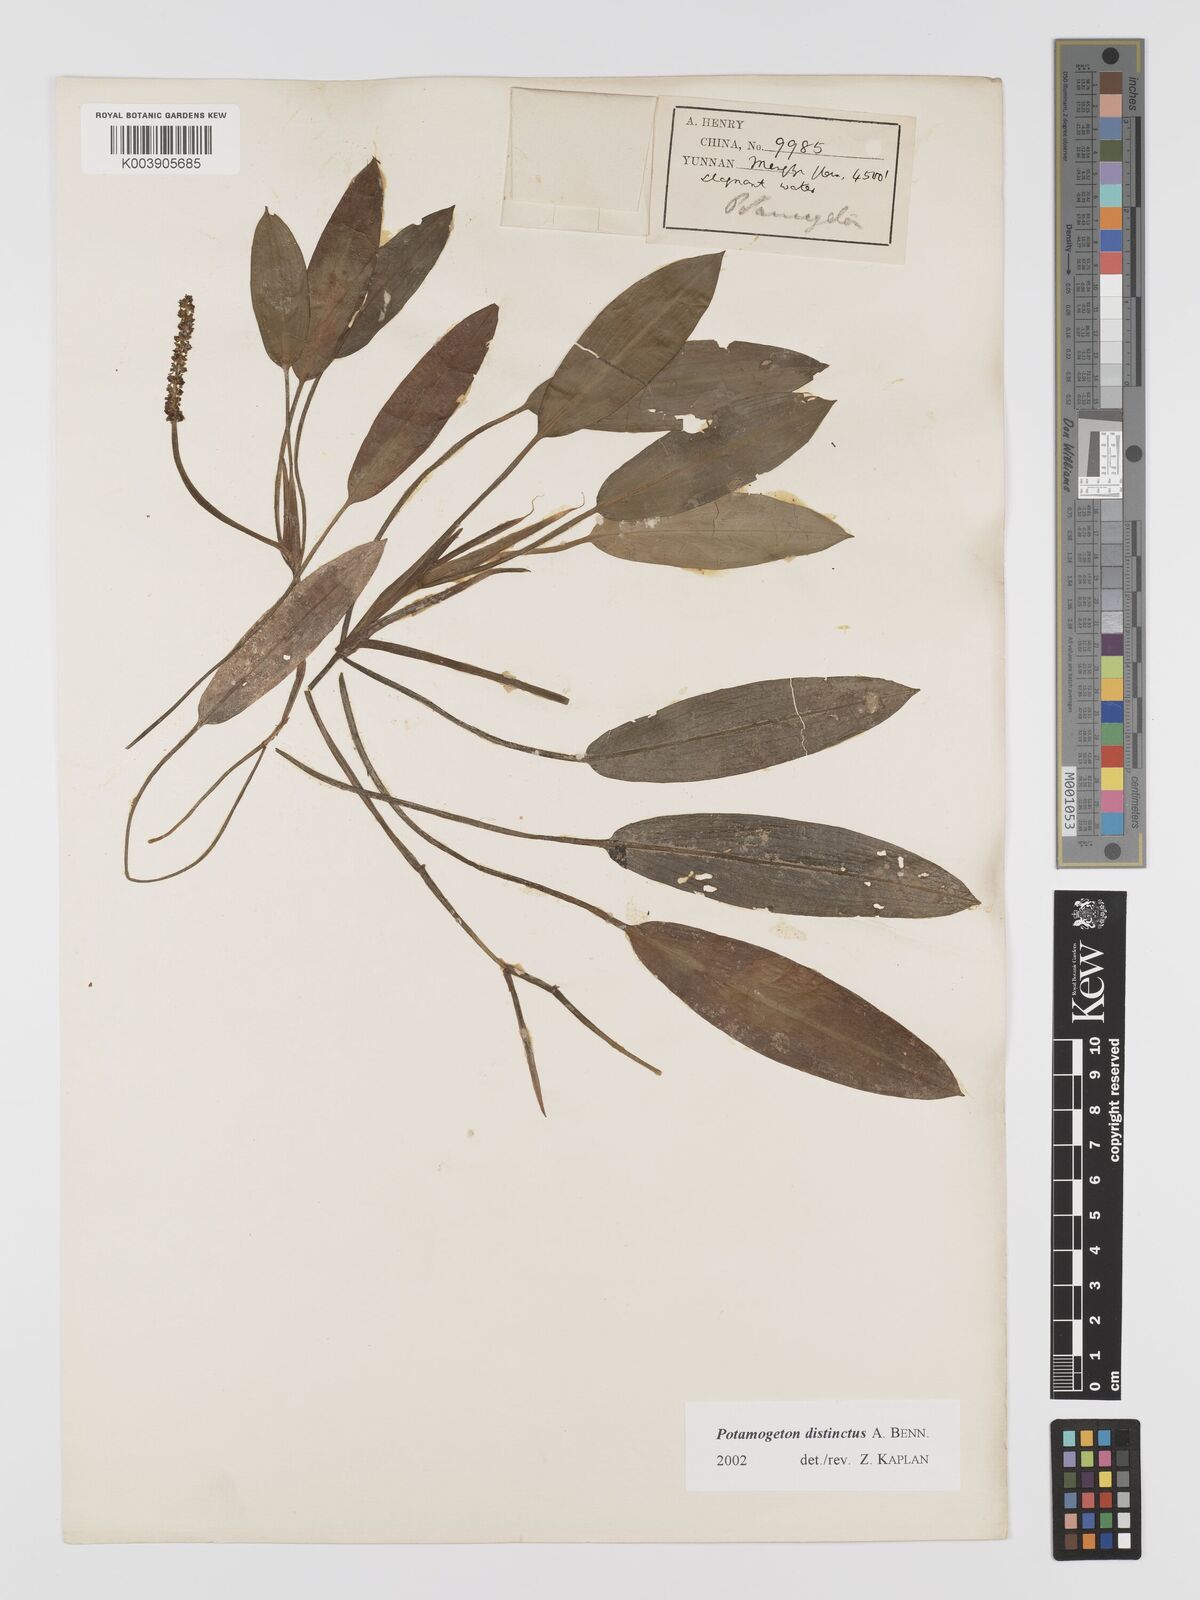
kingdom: Plantae
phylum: Tracheophyta
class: Liliopsida
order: Alismatales
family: Potamogetonaceae
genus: Potamogeton
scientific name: Potamogeton distinctus
